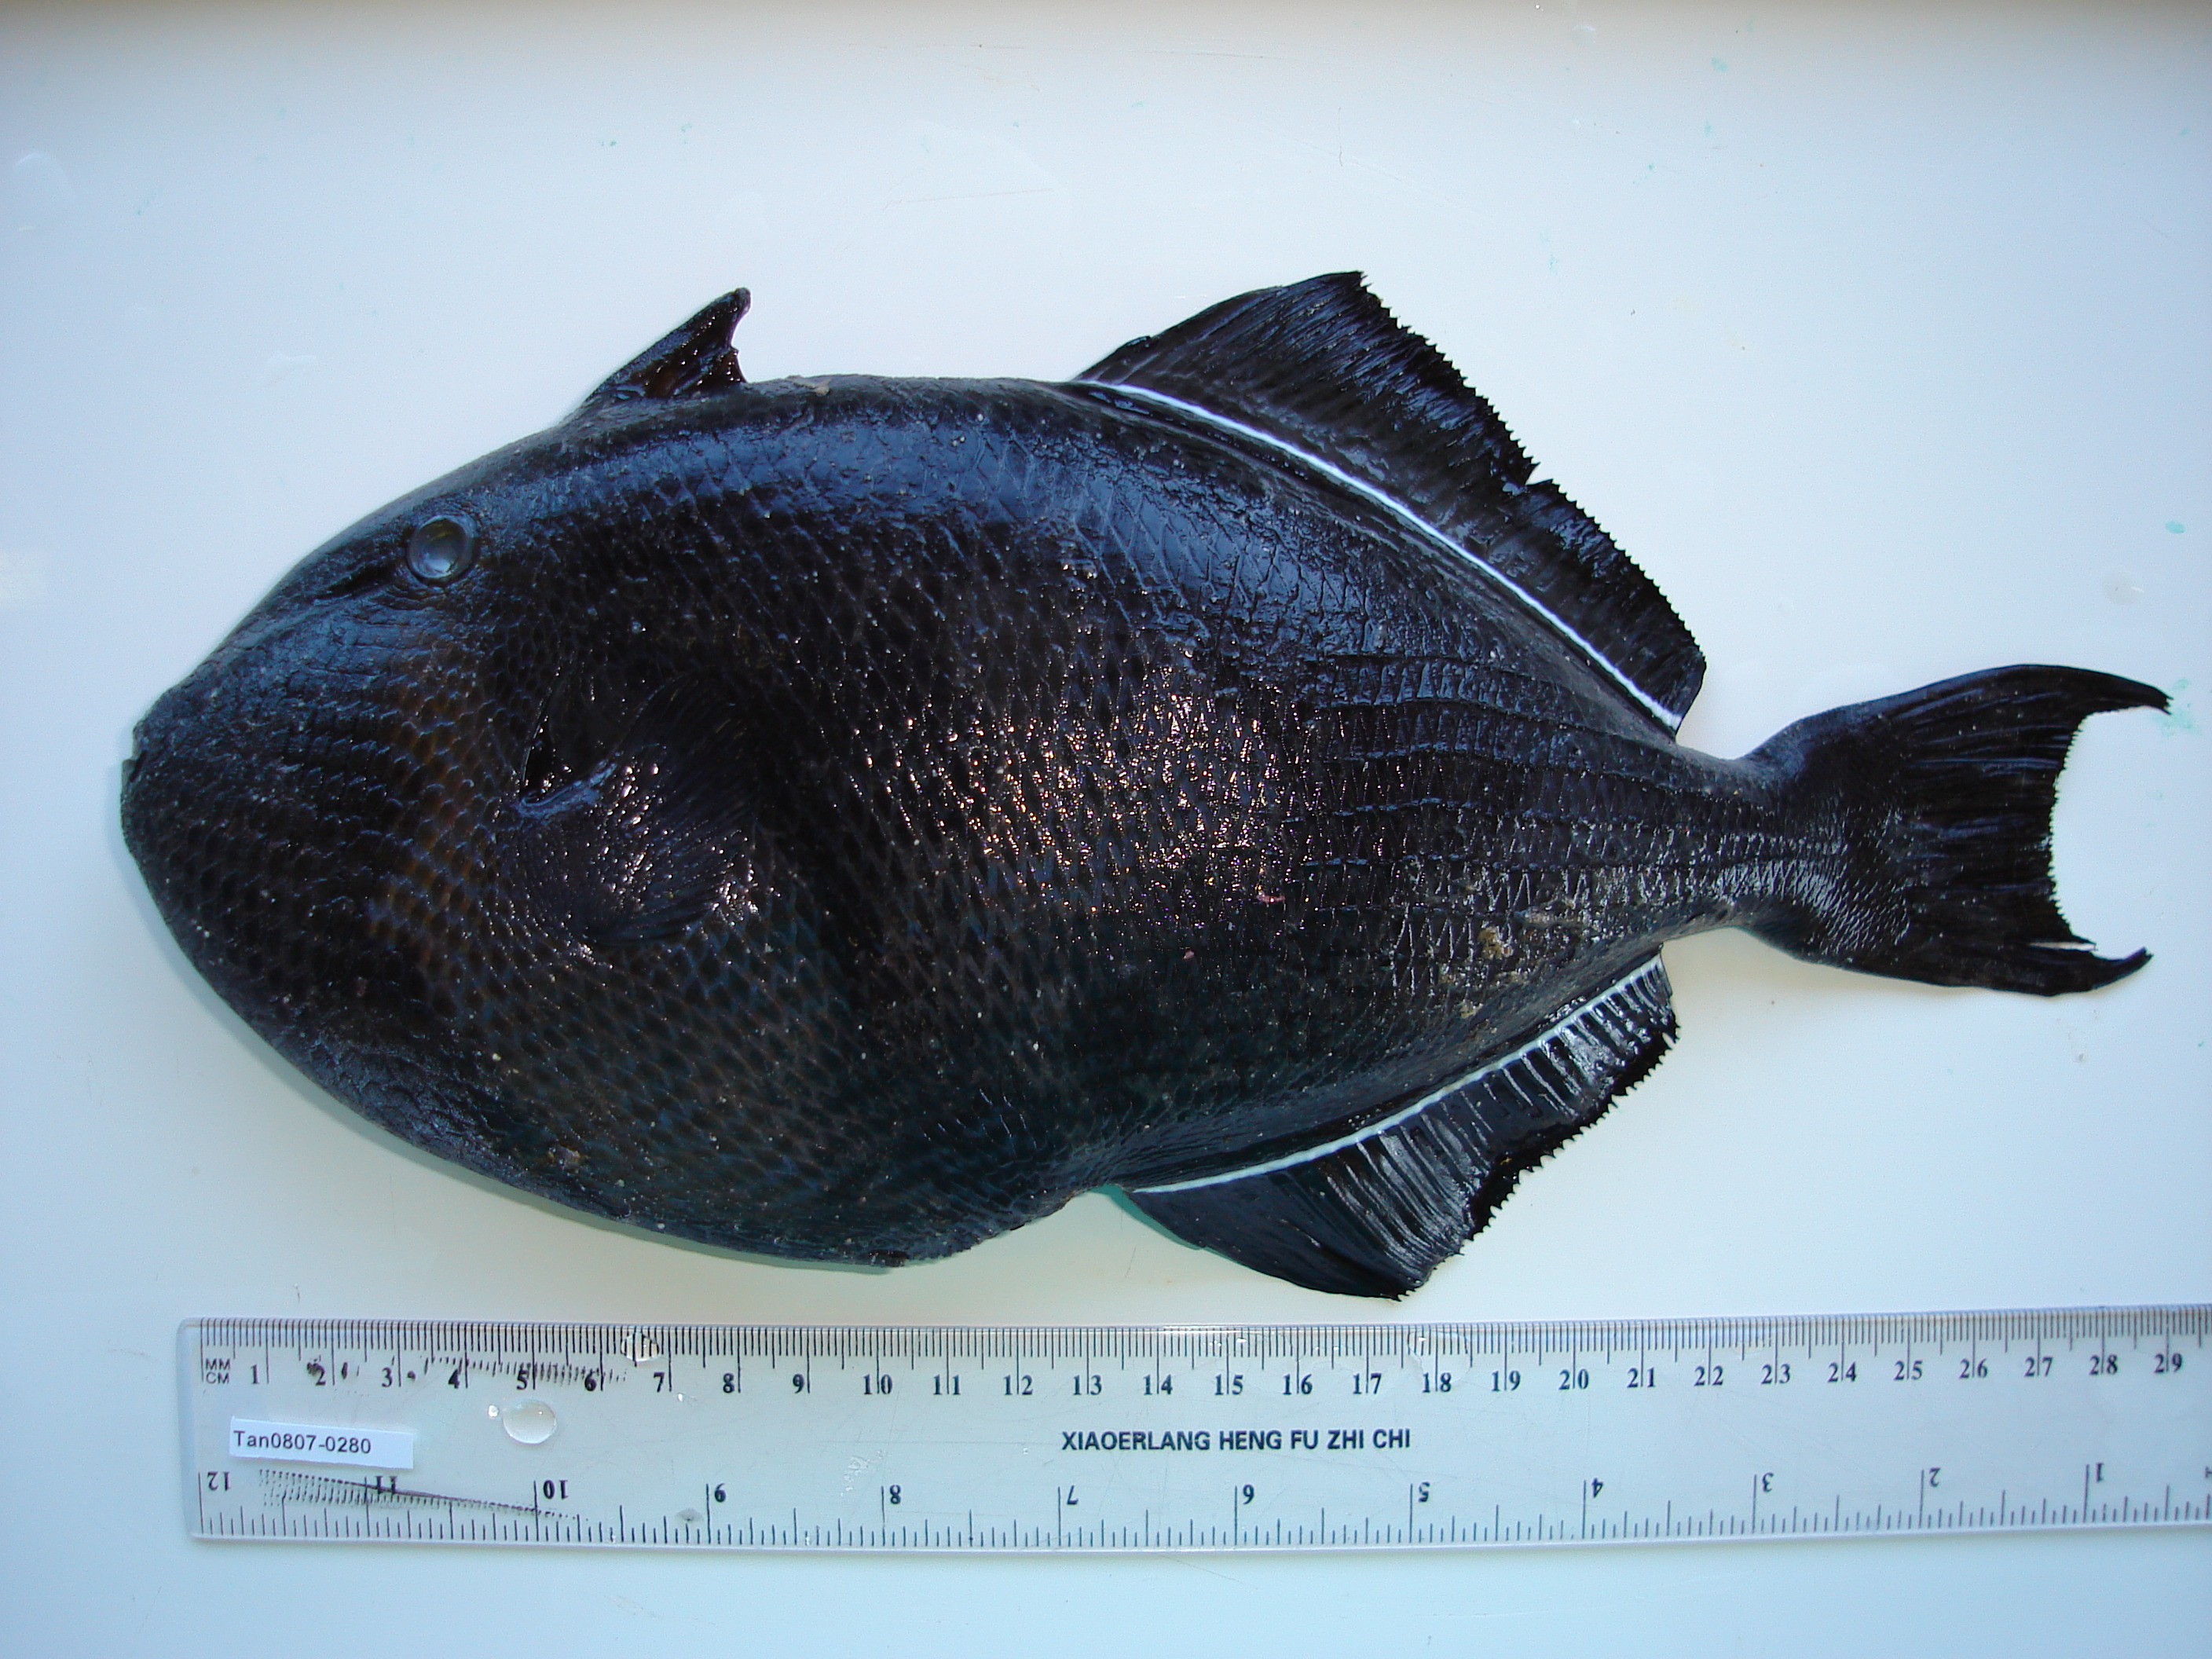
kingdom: Animalia
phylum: Chordata
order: Tetraodontiformes
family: Balistidae
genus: Melichthys
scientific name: Melichthys niger
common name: Black durgon
